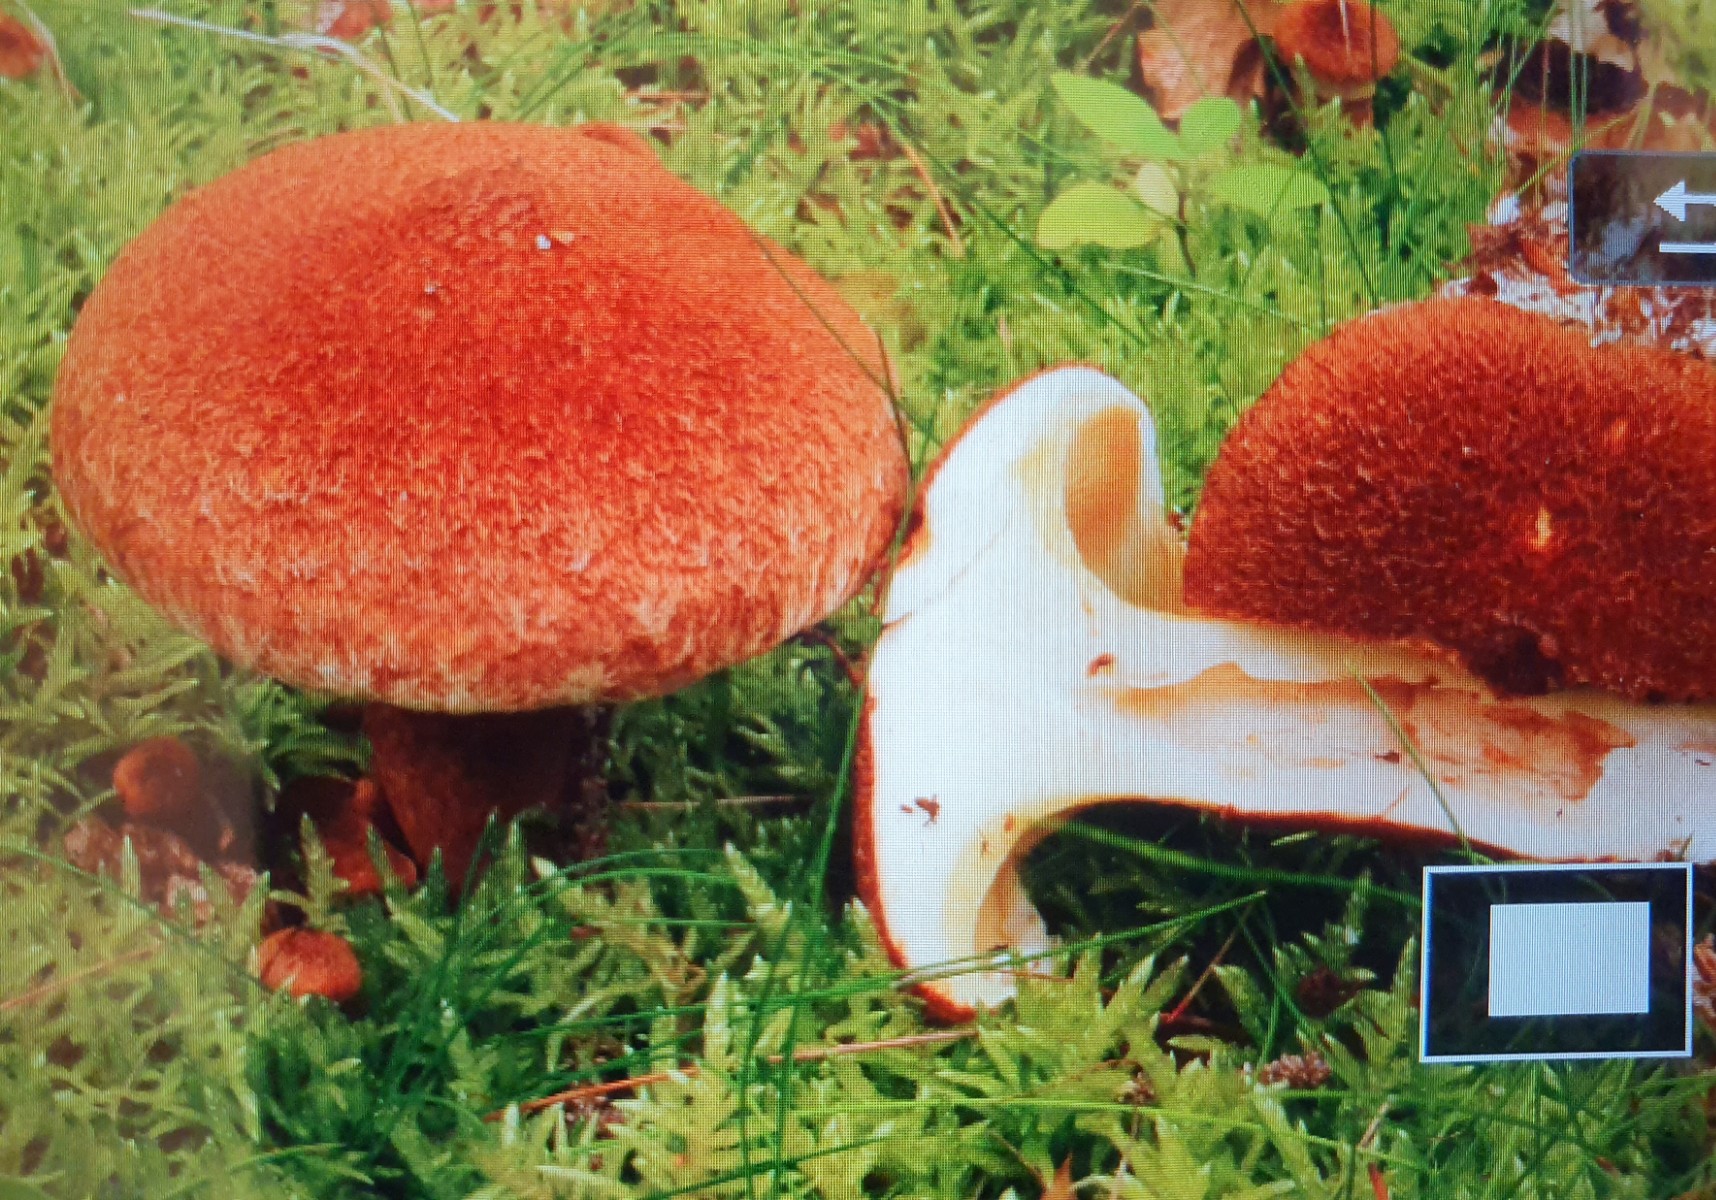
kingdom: Fungi
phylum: Basidiomycota
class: Agaricomycetes
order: Boletales
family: Suillaceae
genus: Suillus
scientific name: Suillus cavipes
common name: hulstokket slimrørhat
